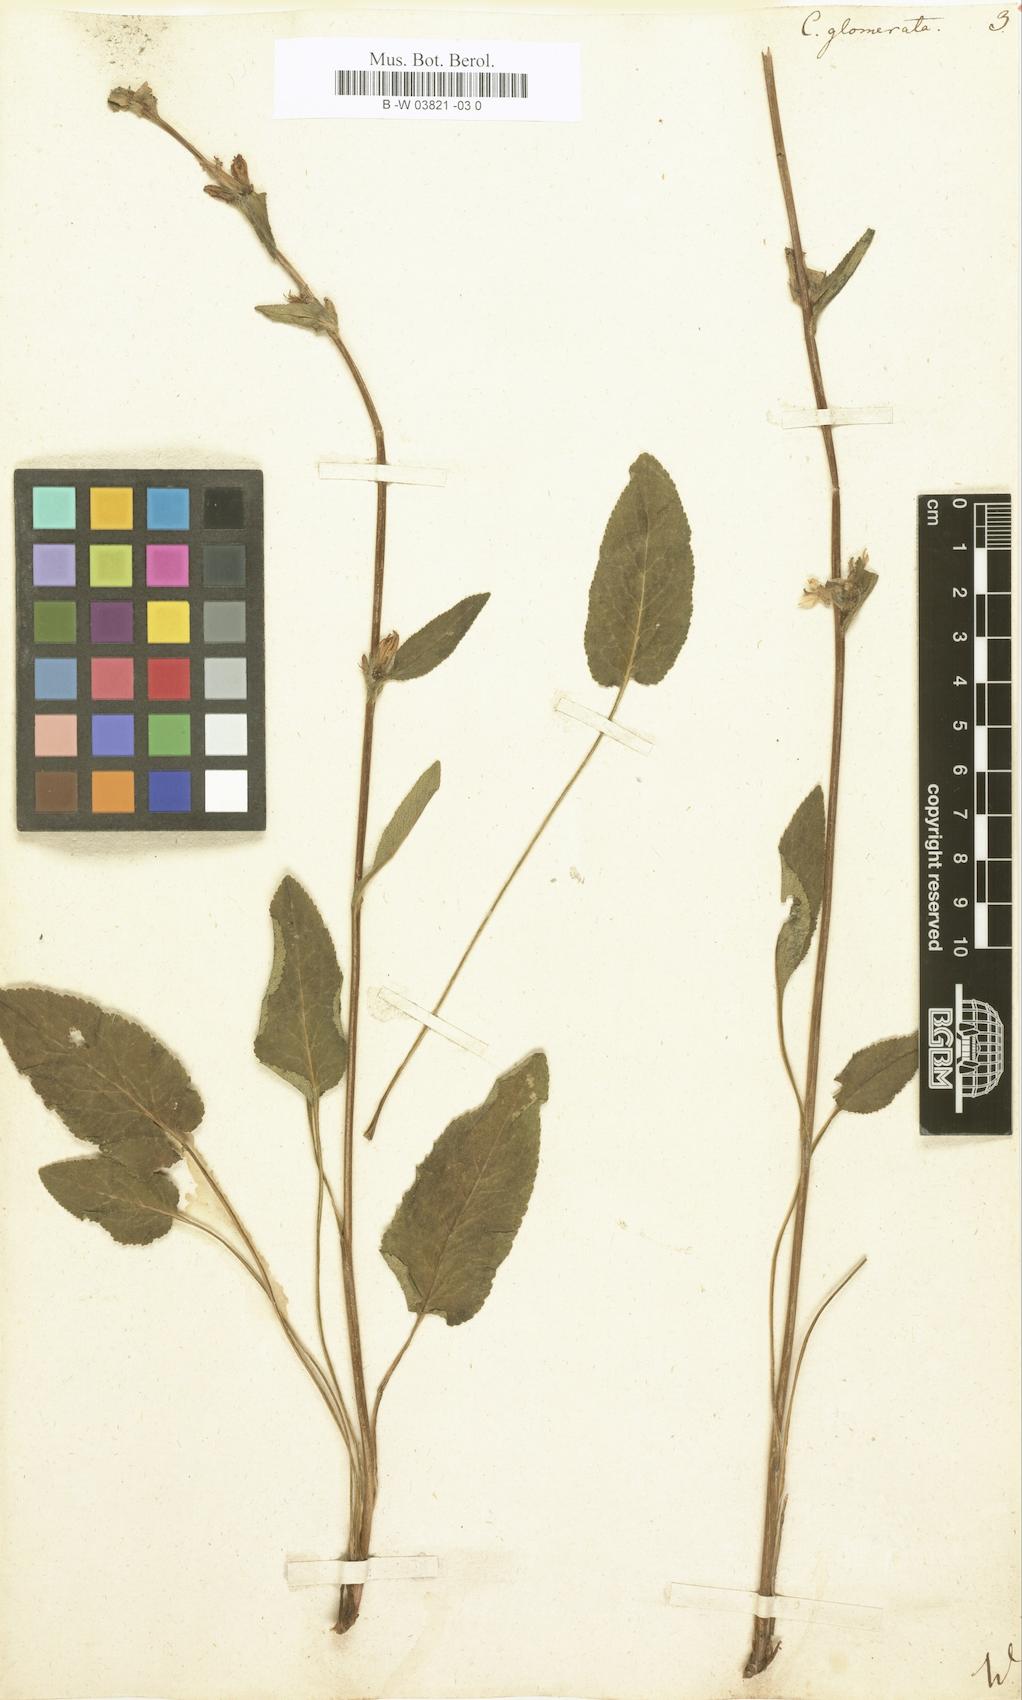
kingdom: Plantae
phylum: Tracheophyta
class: Magnoliopsida
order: Asterales
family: Campanulaceae
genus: Campanula
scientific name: Campanula glomerata
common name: Clustered bellflower
